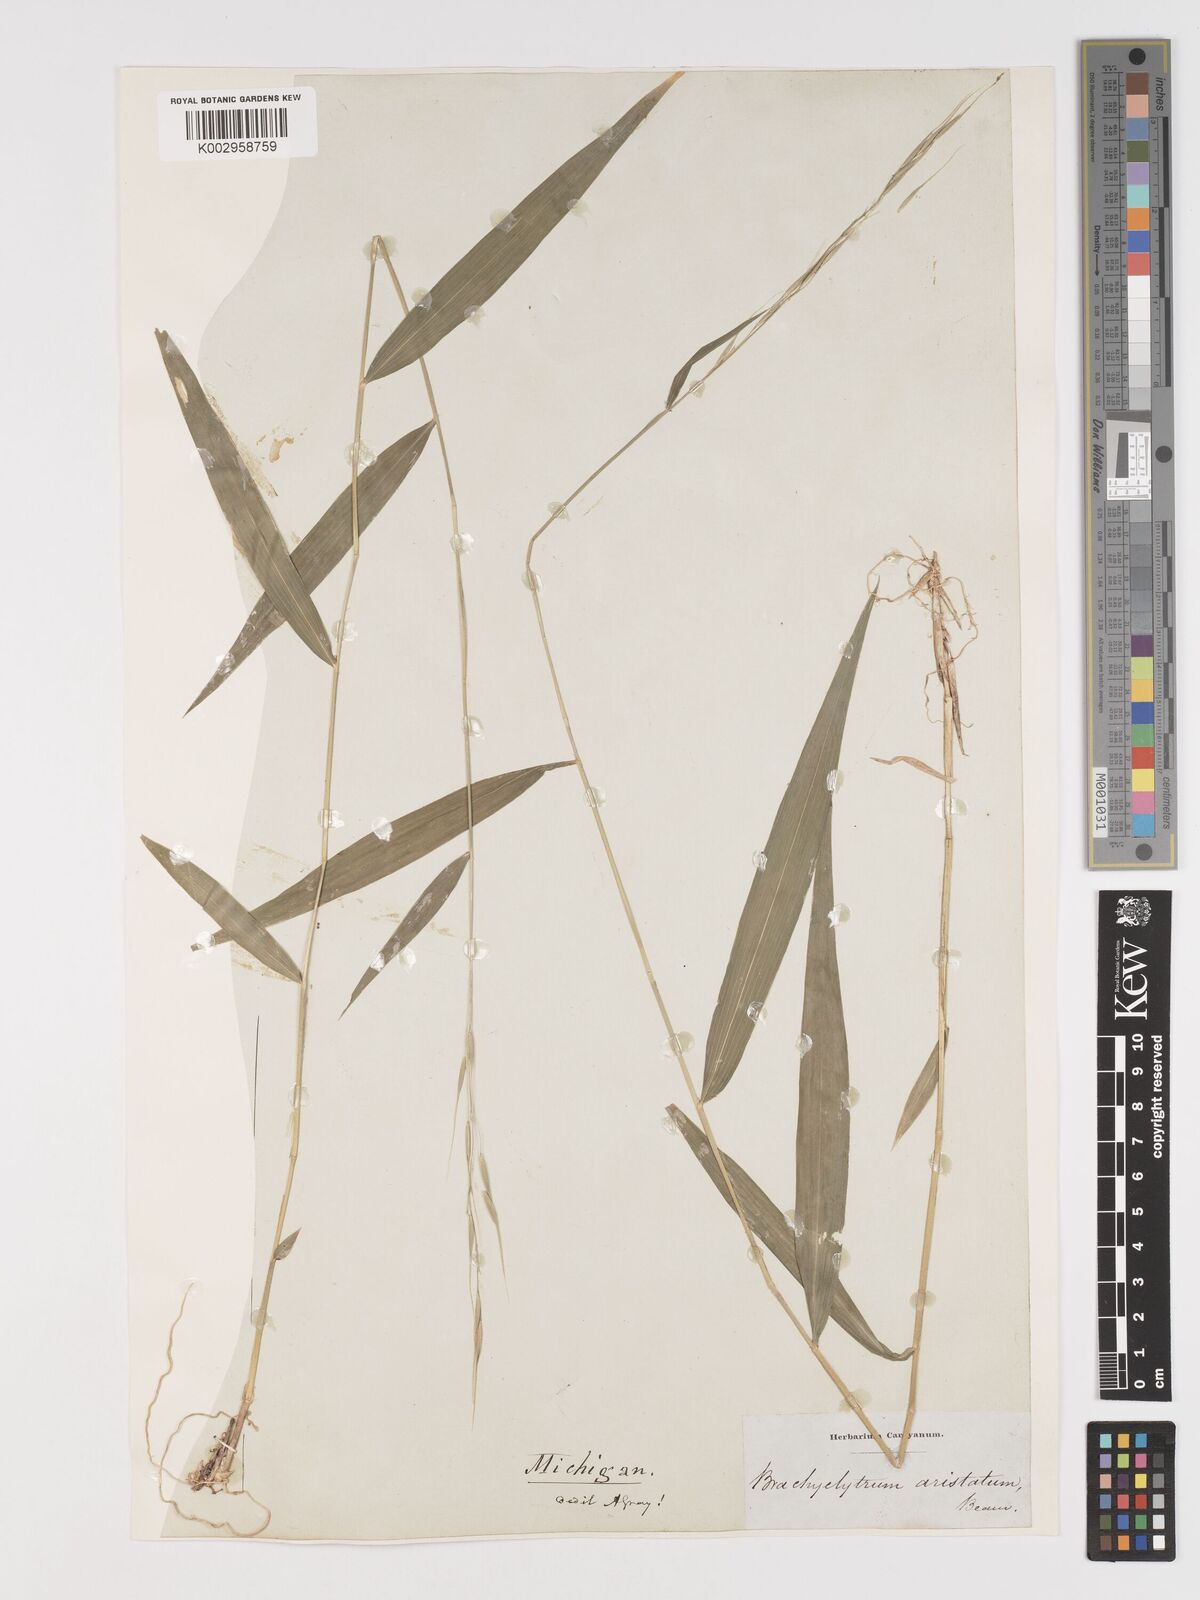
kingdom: Plantae
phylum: Tracheophyta
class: Liliopsida
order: Poales
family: Poaceae
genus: Brachyelytrum
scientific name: Brachyelytrum erectum
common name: Bearded shorthusk
